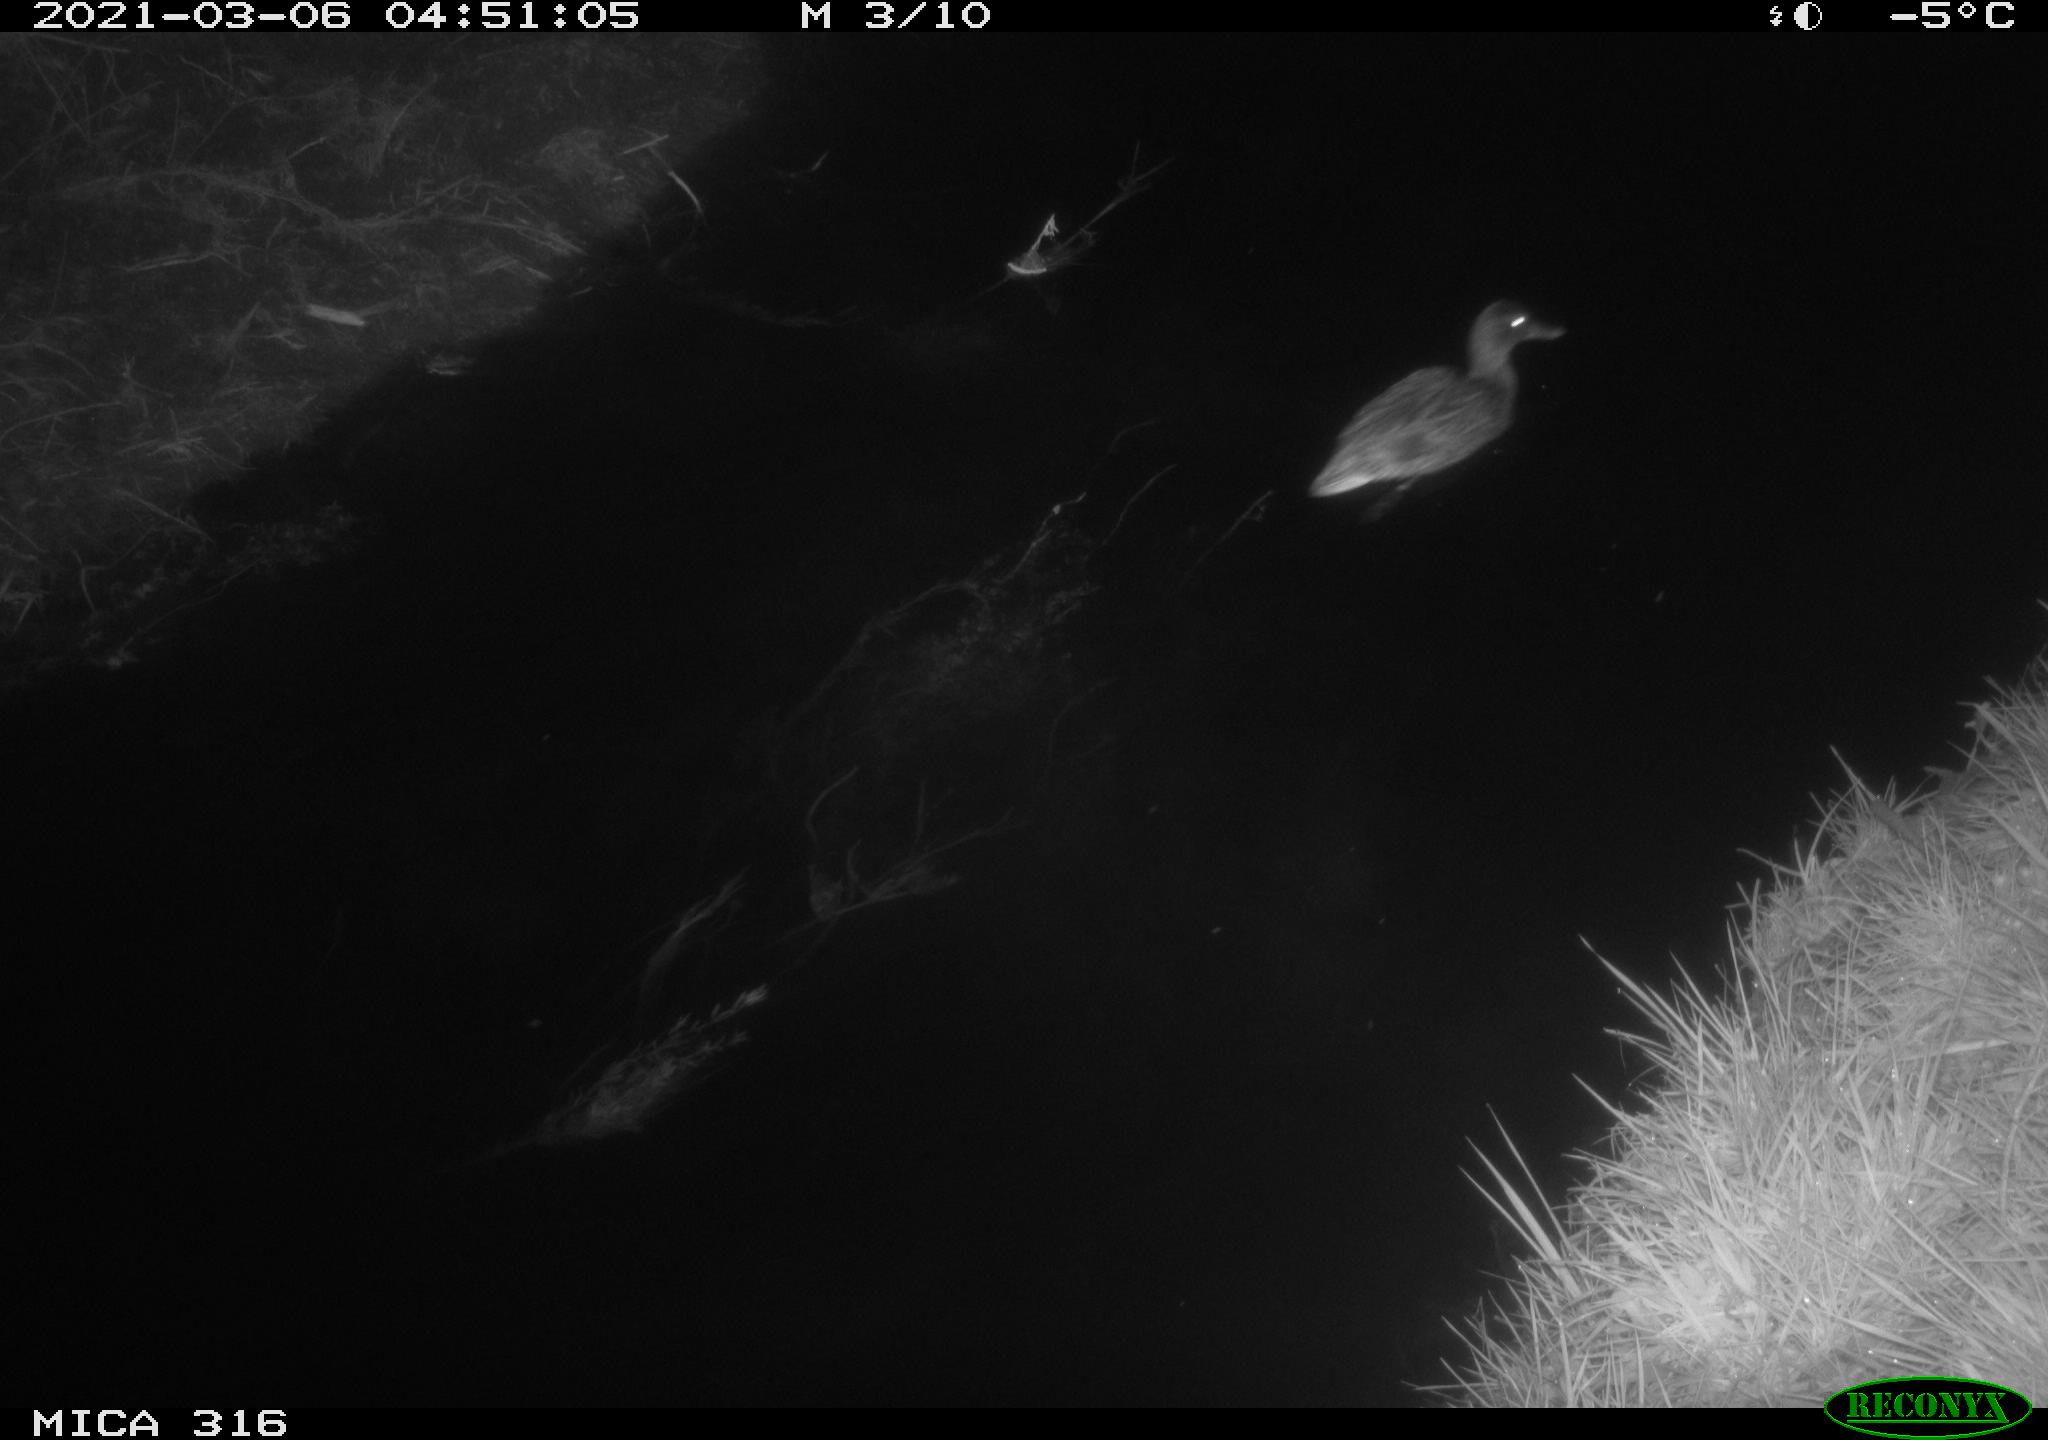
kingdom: Animalia
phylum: Chordata
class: Aves
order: Anseriformes
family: Anatidae
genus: Anas
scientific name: Anas platyrhynchos
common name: Mallard
